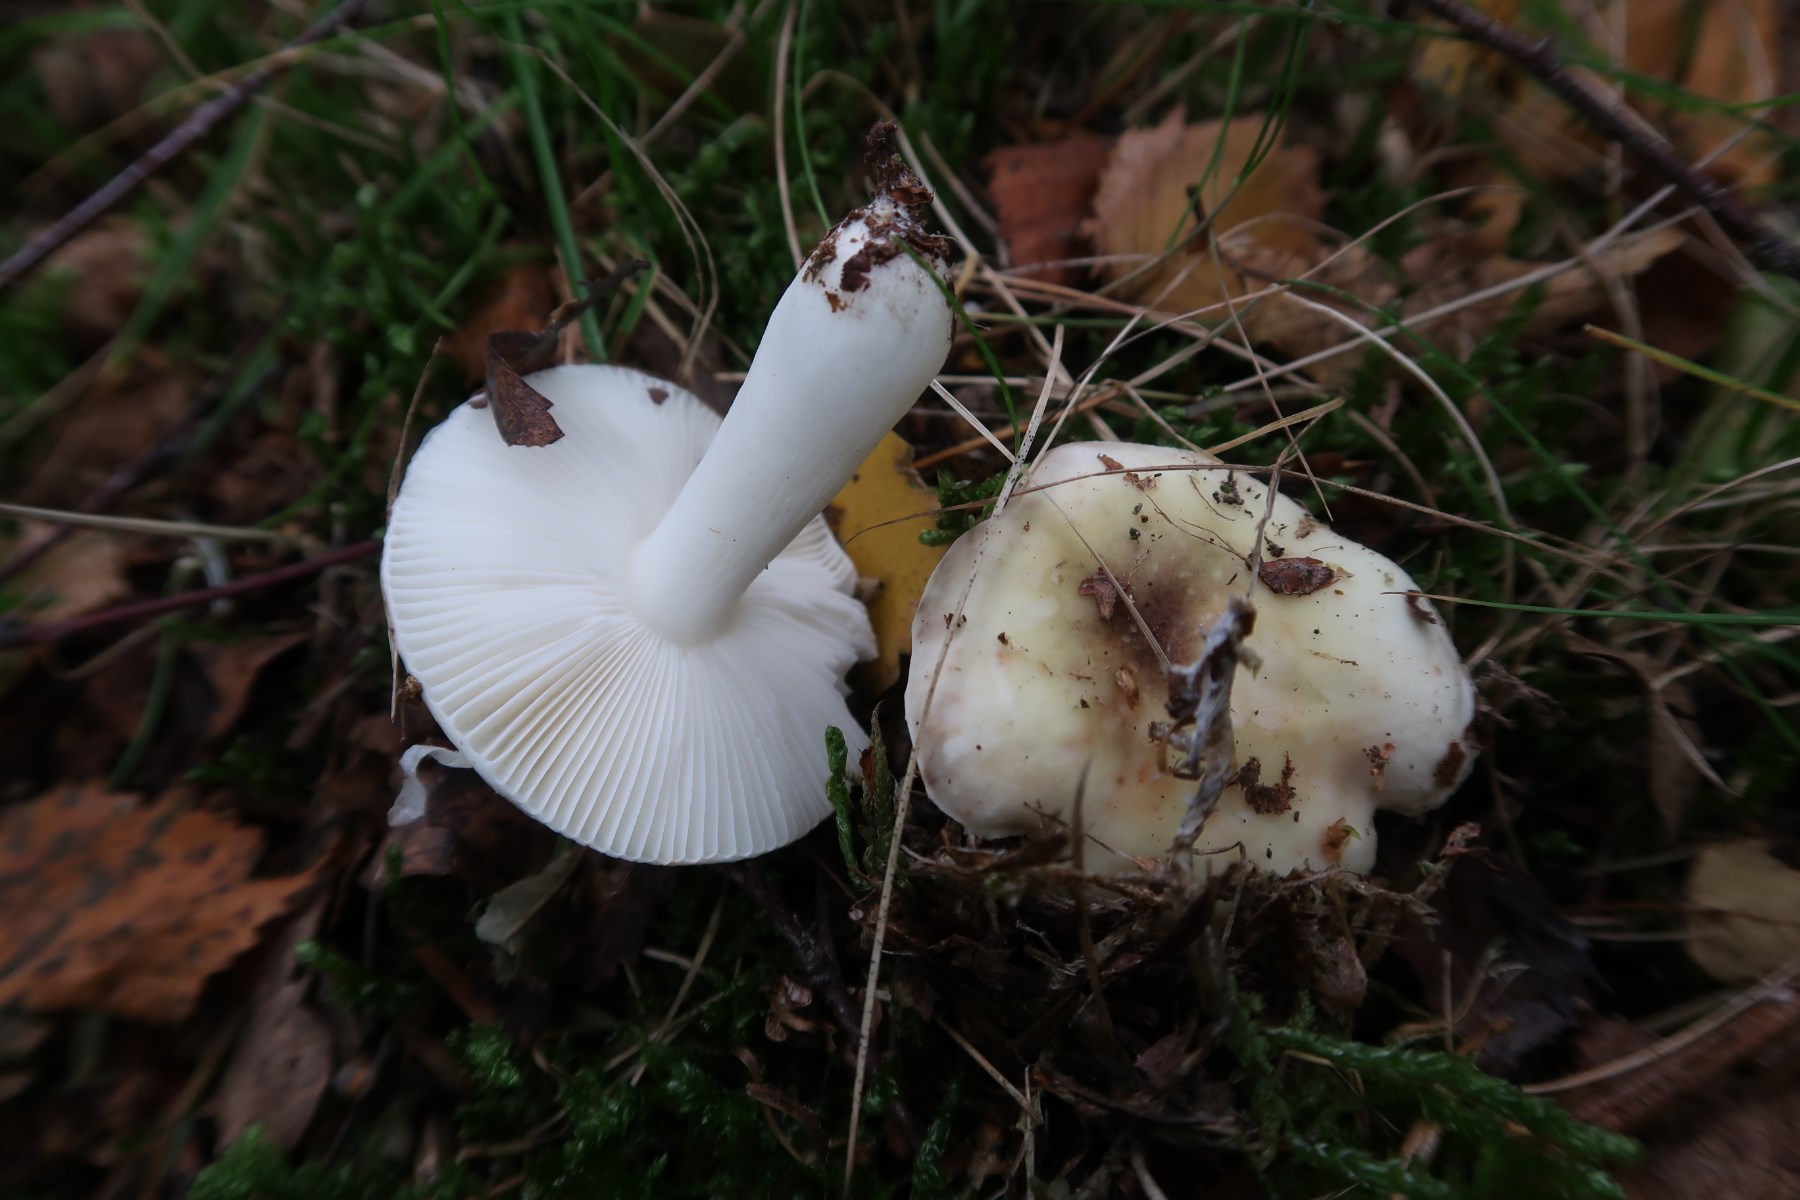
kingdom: Fungi
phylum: Basidiomycota
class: Agaricomycetes
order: Russulales
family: Russulaceae
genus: Russula
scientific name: Russula fragilis
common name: Fragile brittlegill
